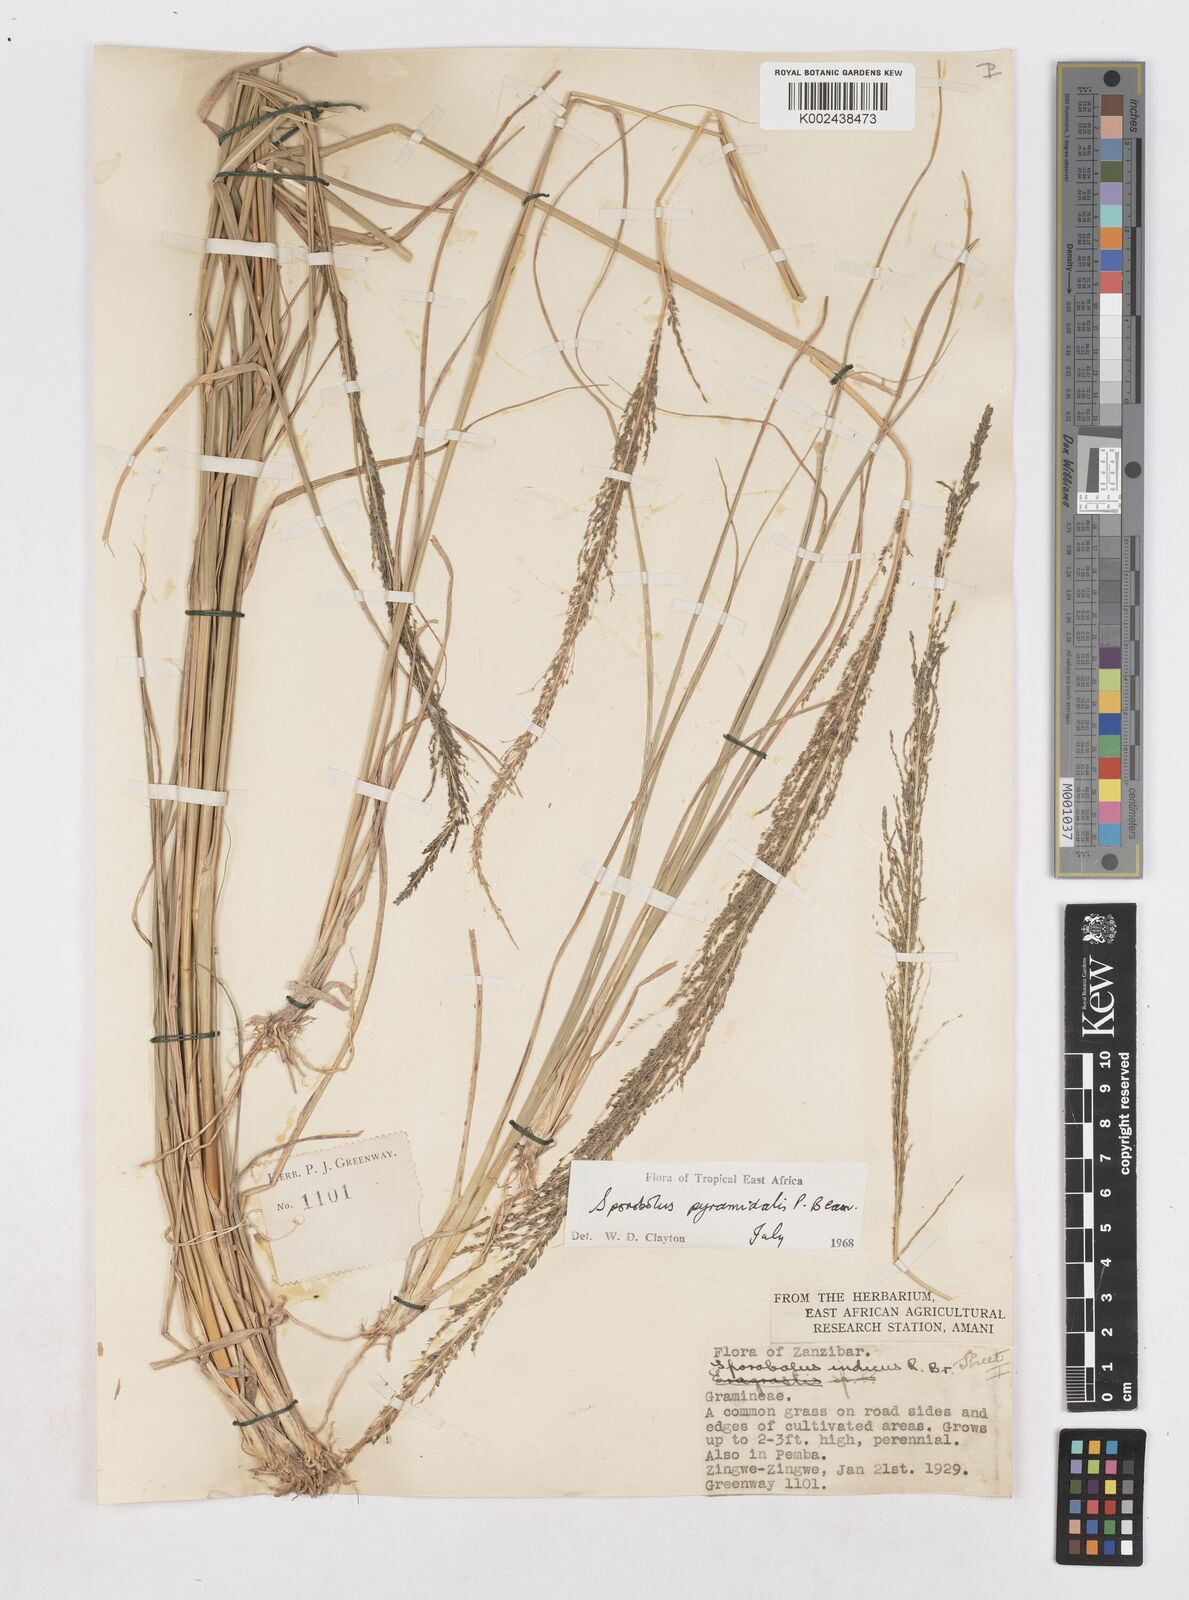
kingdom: Plantae
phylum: Tracheophyta
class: Liliopsida
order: Poales
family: Poaceae
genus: Sporobolus
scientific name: Sporobolus pyramidalis
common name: West indian dropseed
